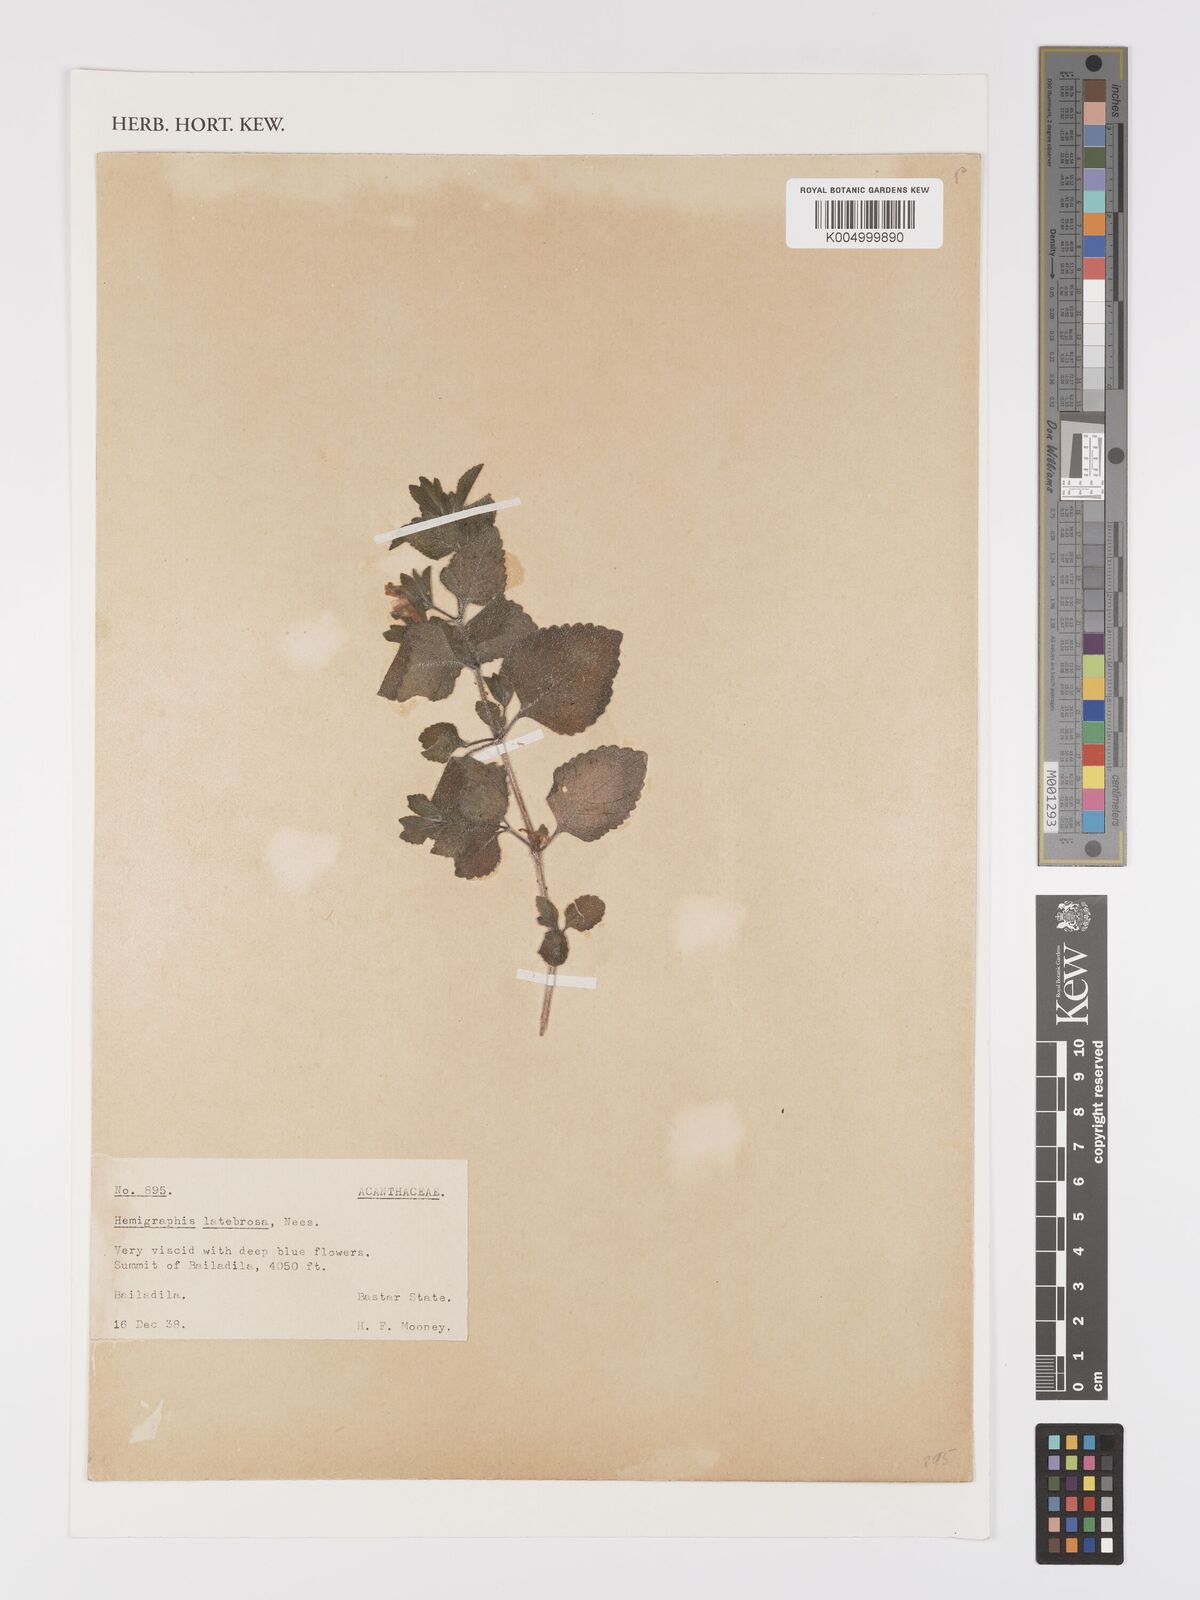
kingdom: Plantae
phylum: Tracheophyta
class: Magnoliopsida
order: Lamiales
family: Acanthaceae
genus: Strobilanthes
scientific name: Strobilanthes latebrosa
